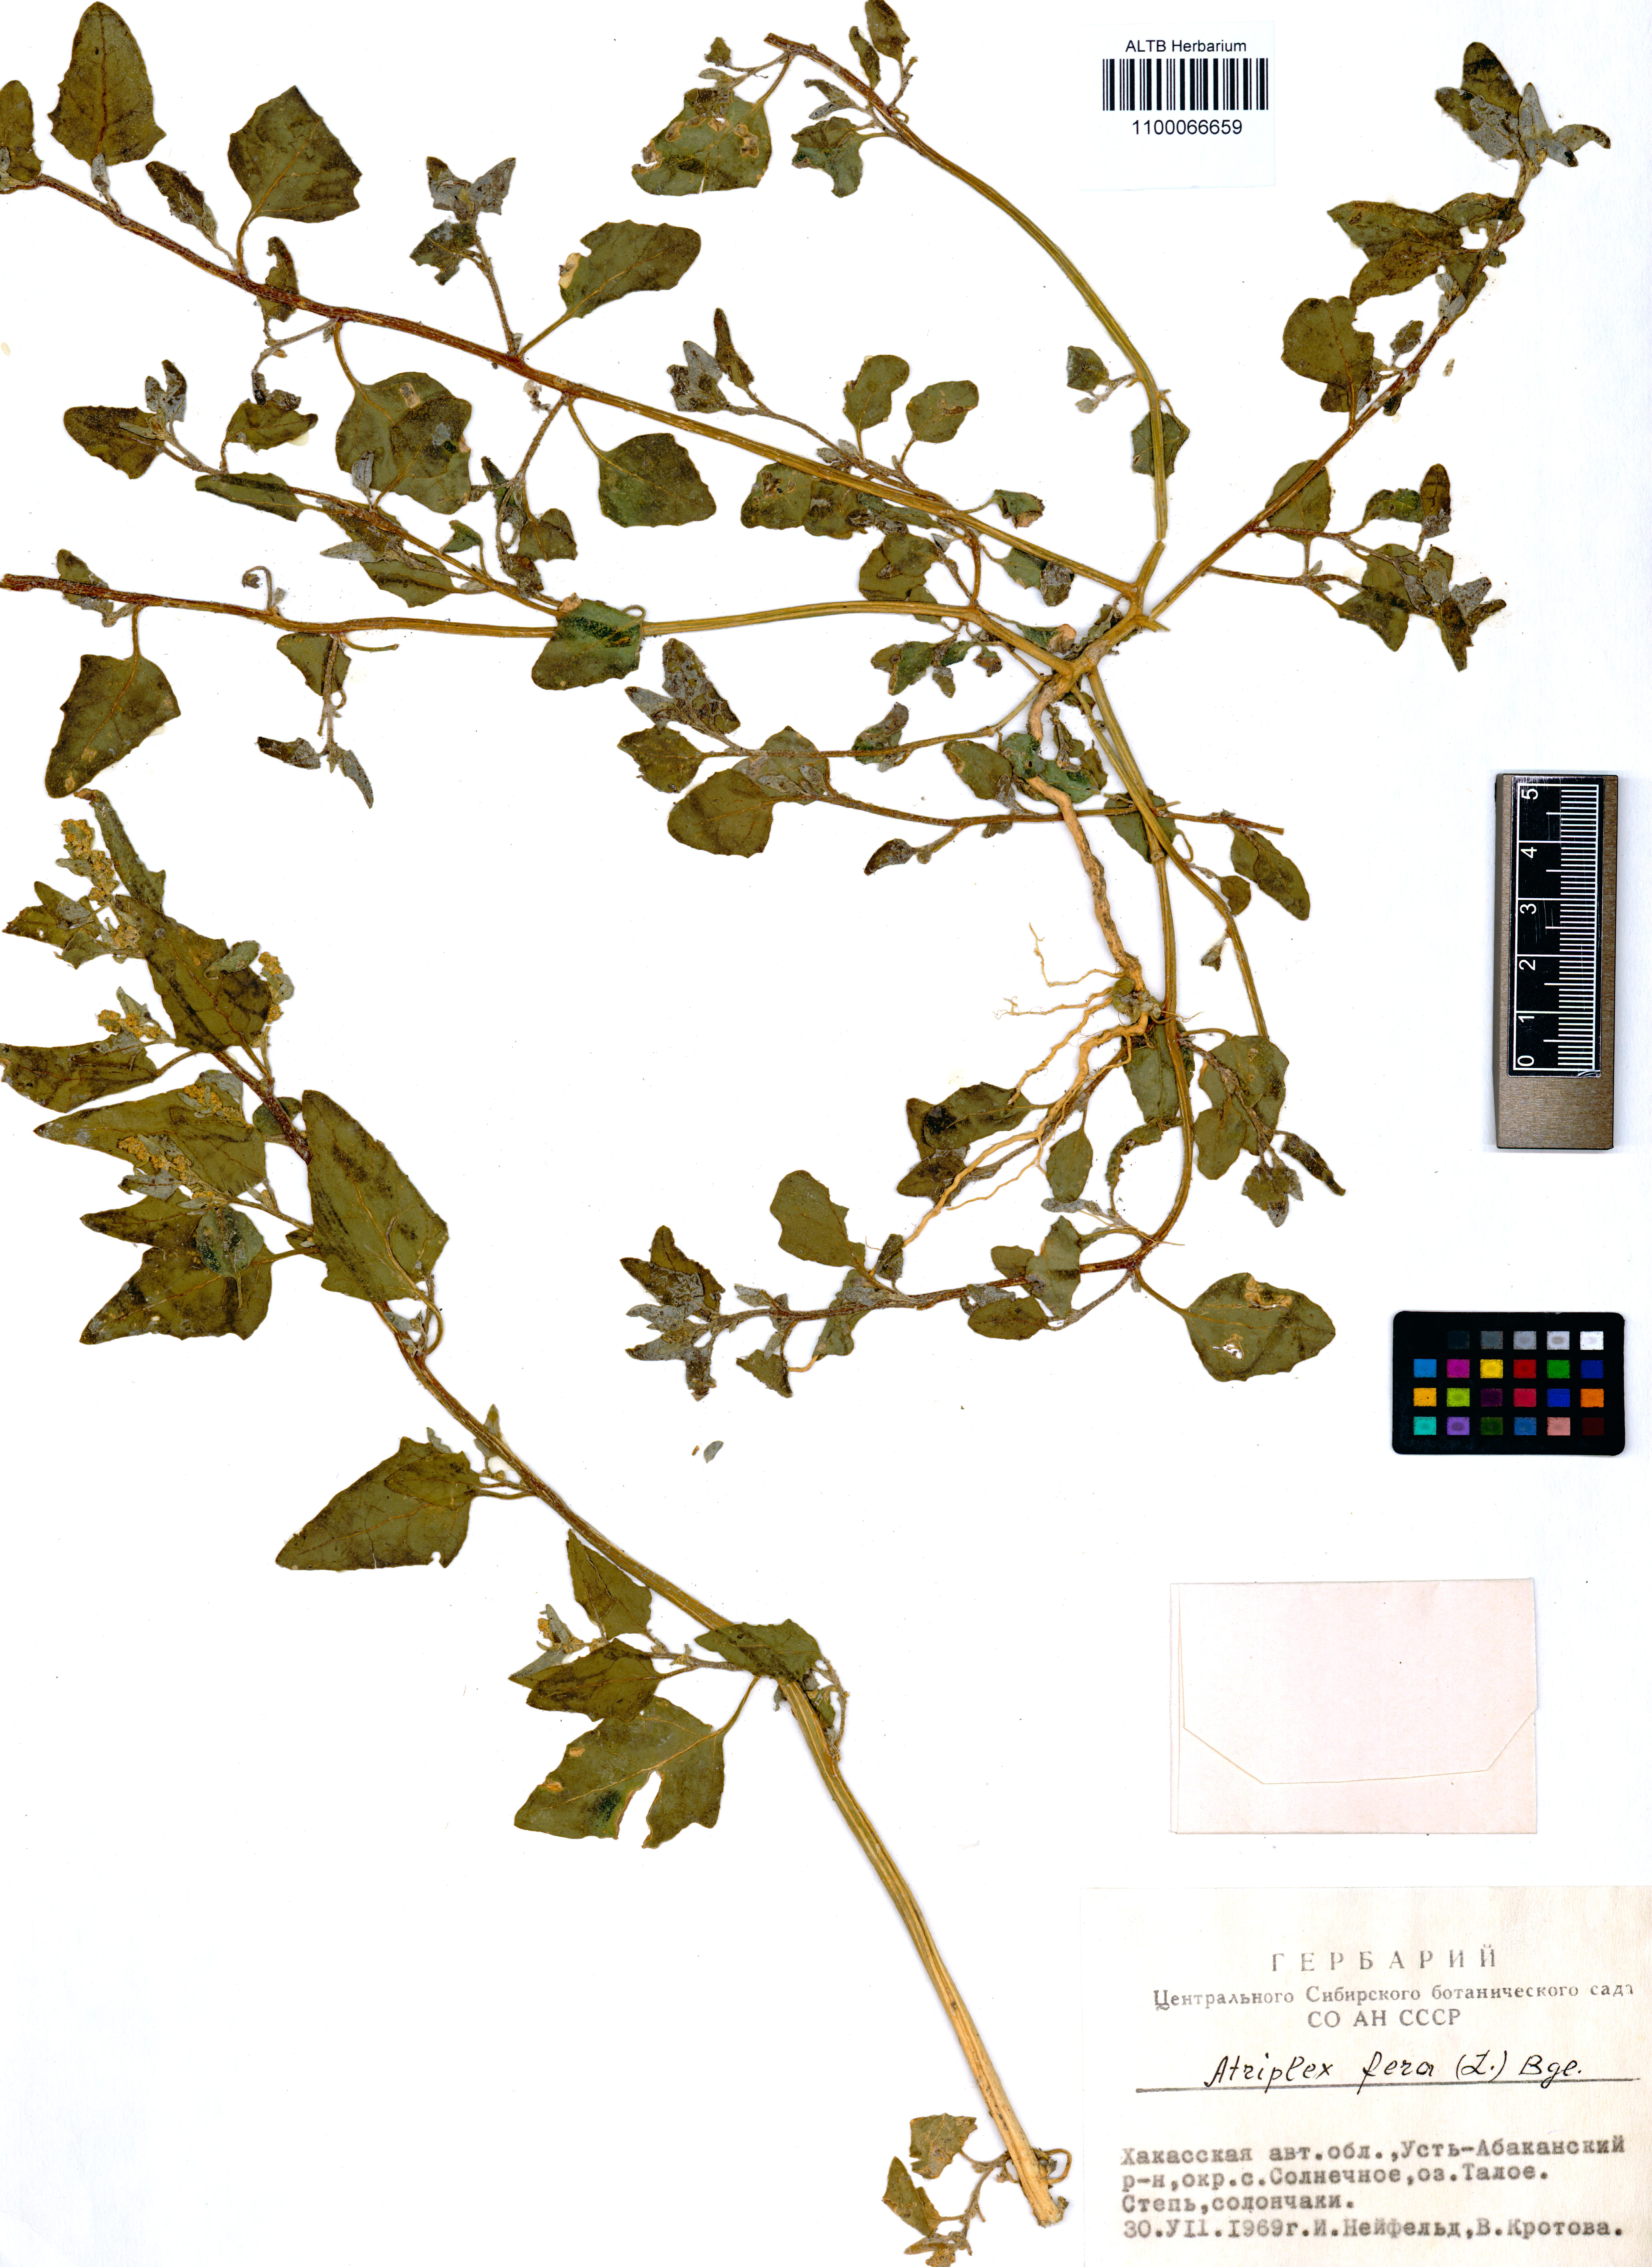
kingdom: Plantae
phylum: Tracheophyta
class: Magnoliopsida
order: Caryophyllales
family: Amaranthaceae
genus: Atriplex
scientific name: Atriplex fera
